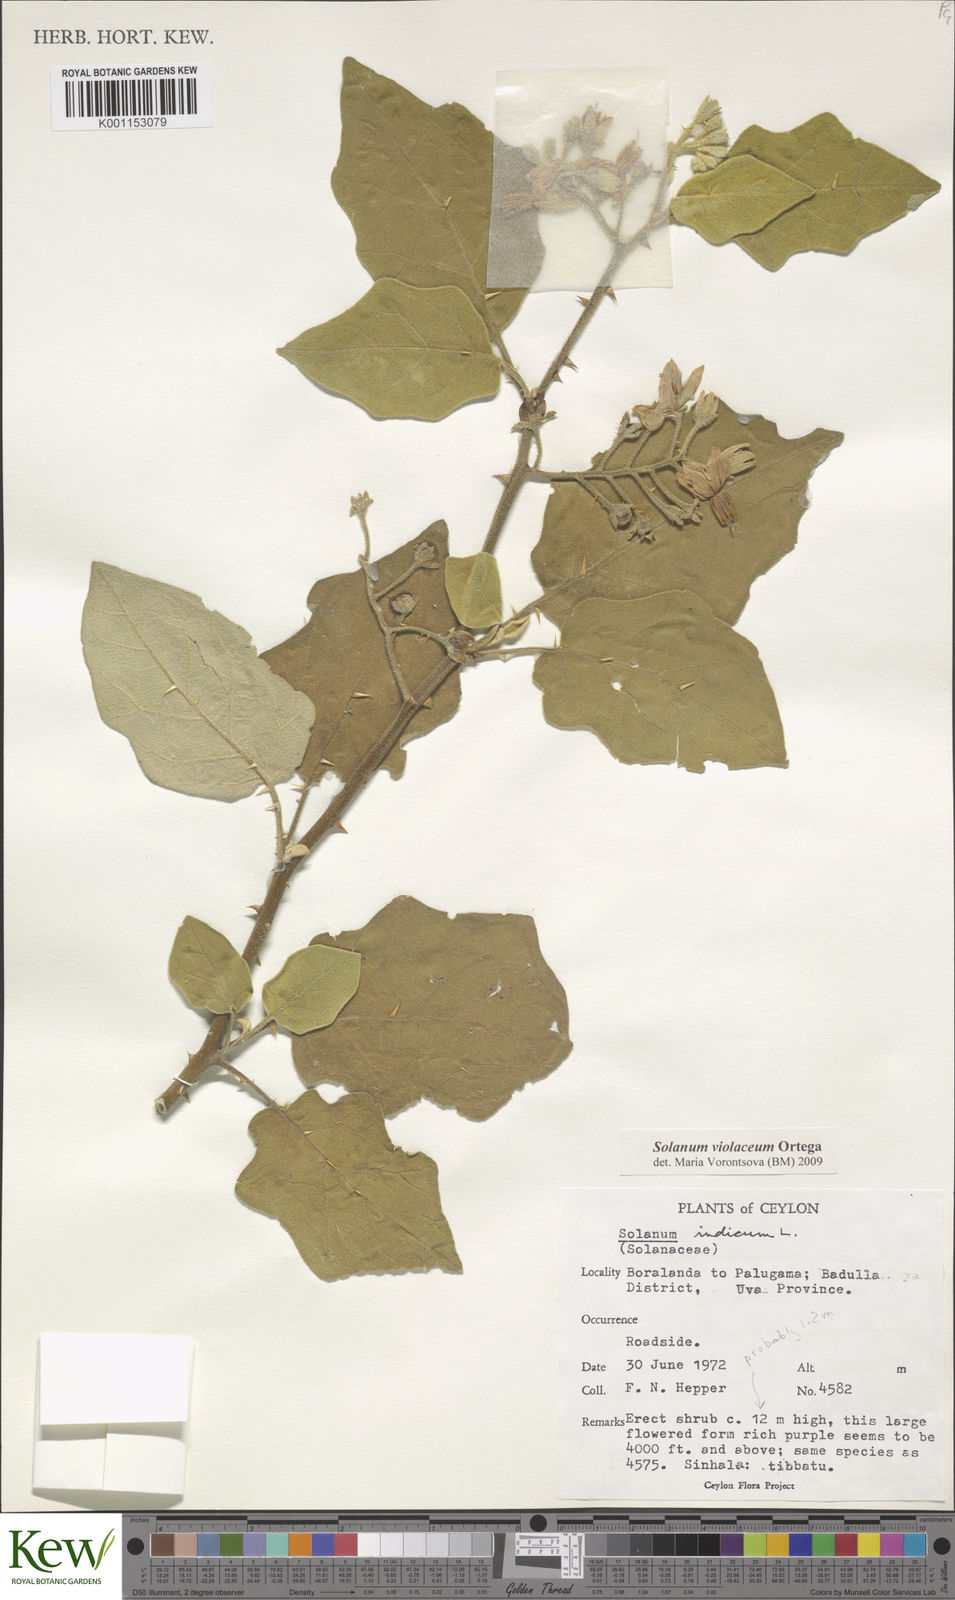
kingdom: Plantae
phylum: Tracheophyta
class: Magnoliopsida
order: Solanales
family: Solanaceae
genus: Solanum
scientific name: Solanum violaceum
